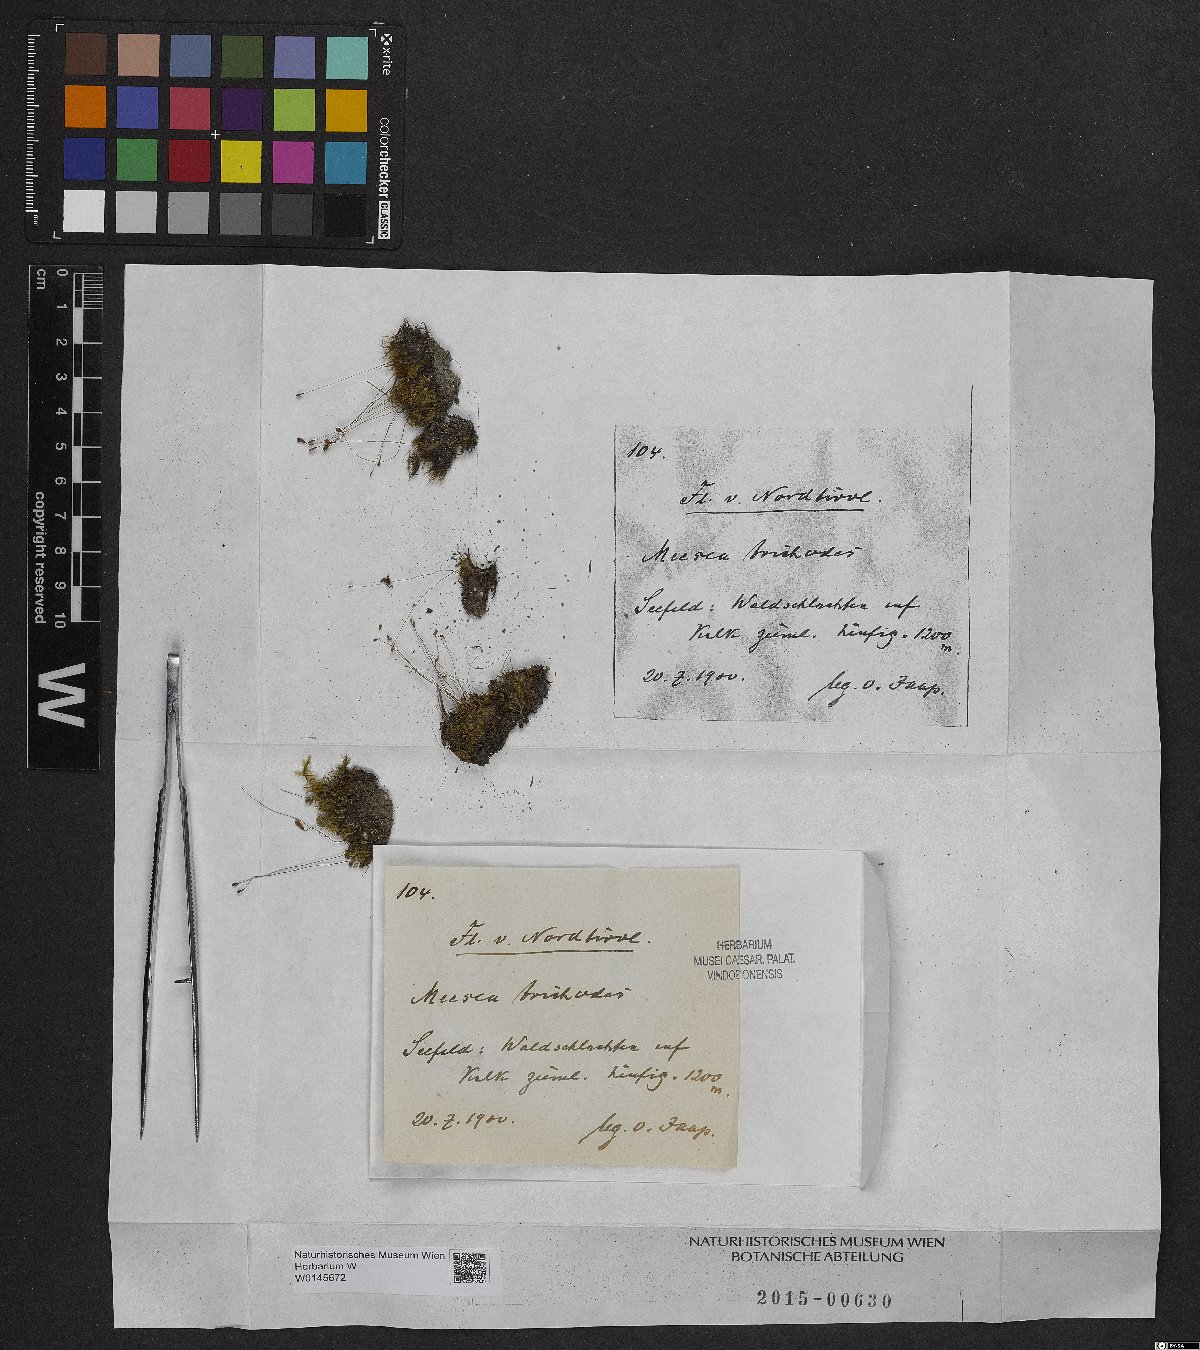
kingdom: Plantae
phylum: Bryophyta
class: Bryopsida
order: Splachnales
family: Meesiaceae
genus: Meesia
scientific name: Meesia uliginosa
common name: Capillary thread moss
